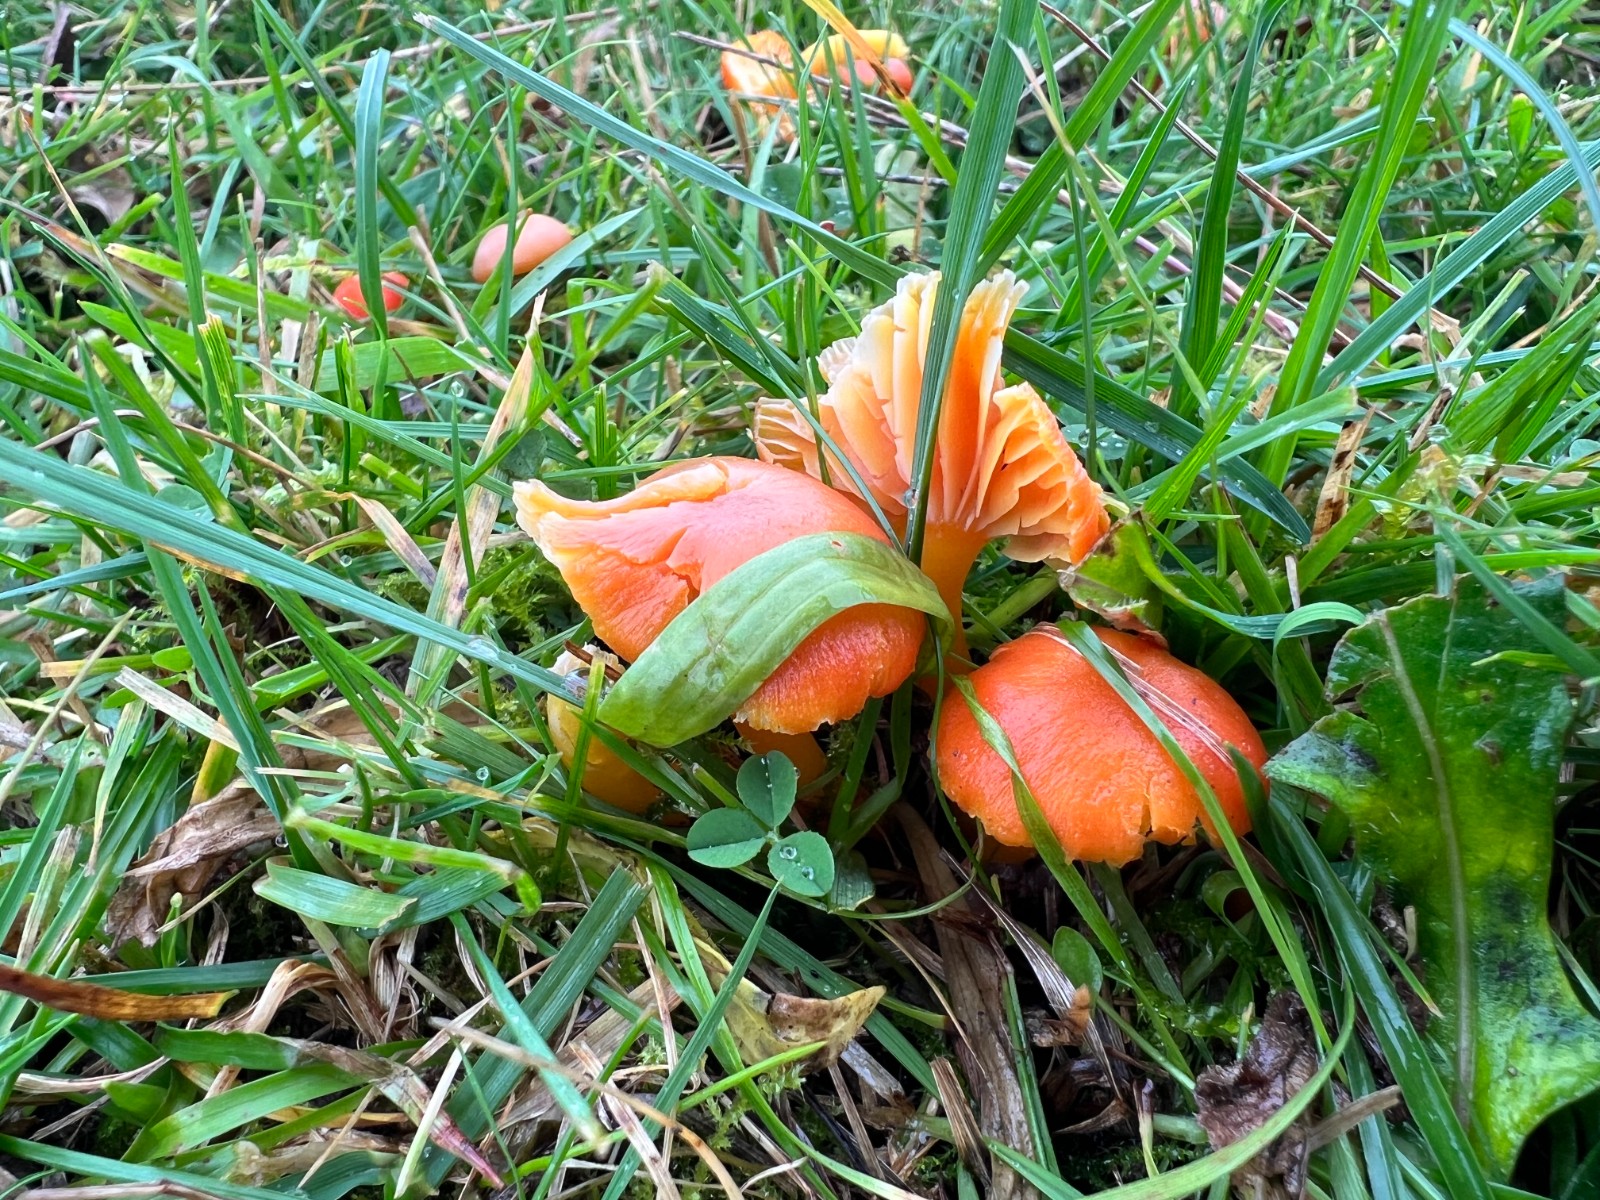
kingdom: Fungi
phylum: Basidiomycota
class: Agaricomycetes
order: Agaricales
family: Hygrophoraceae
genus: Hygrocybe
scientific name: Hygrocybe reidii
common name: honning-vokshat
